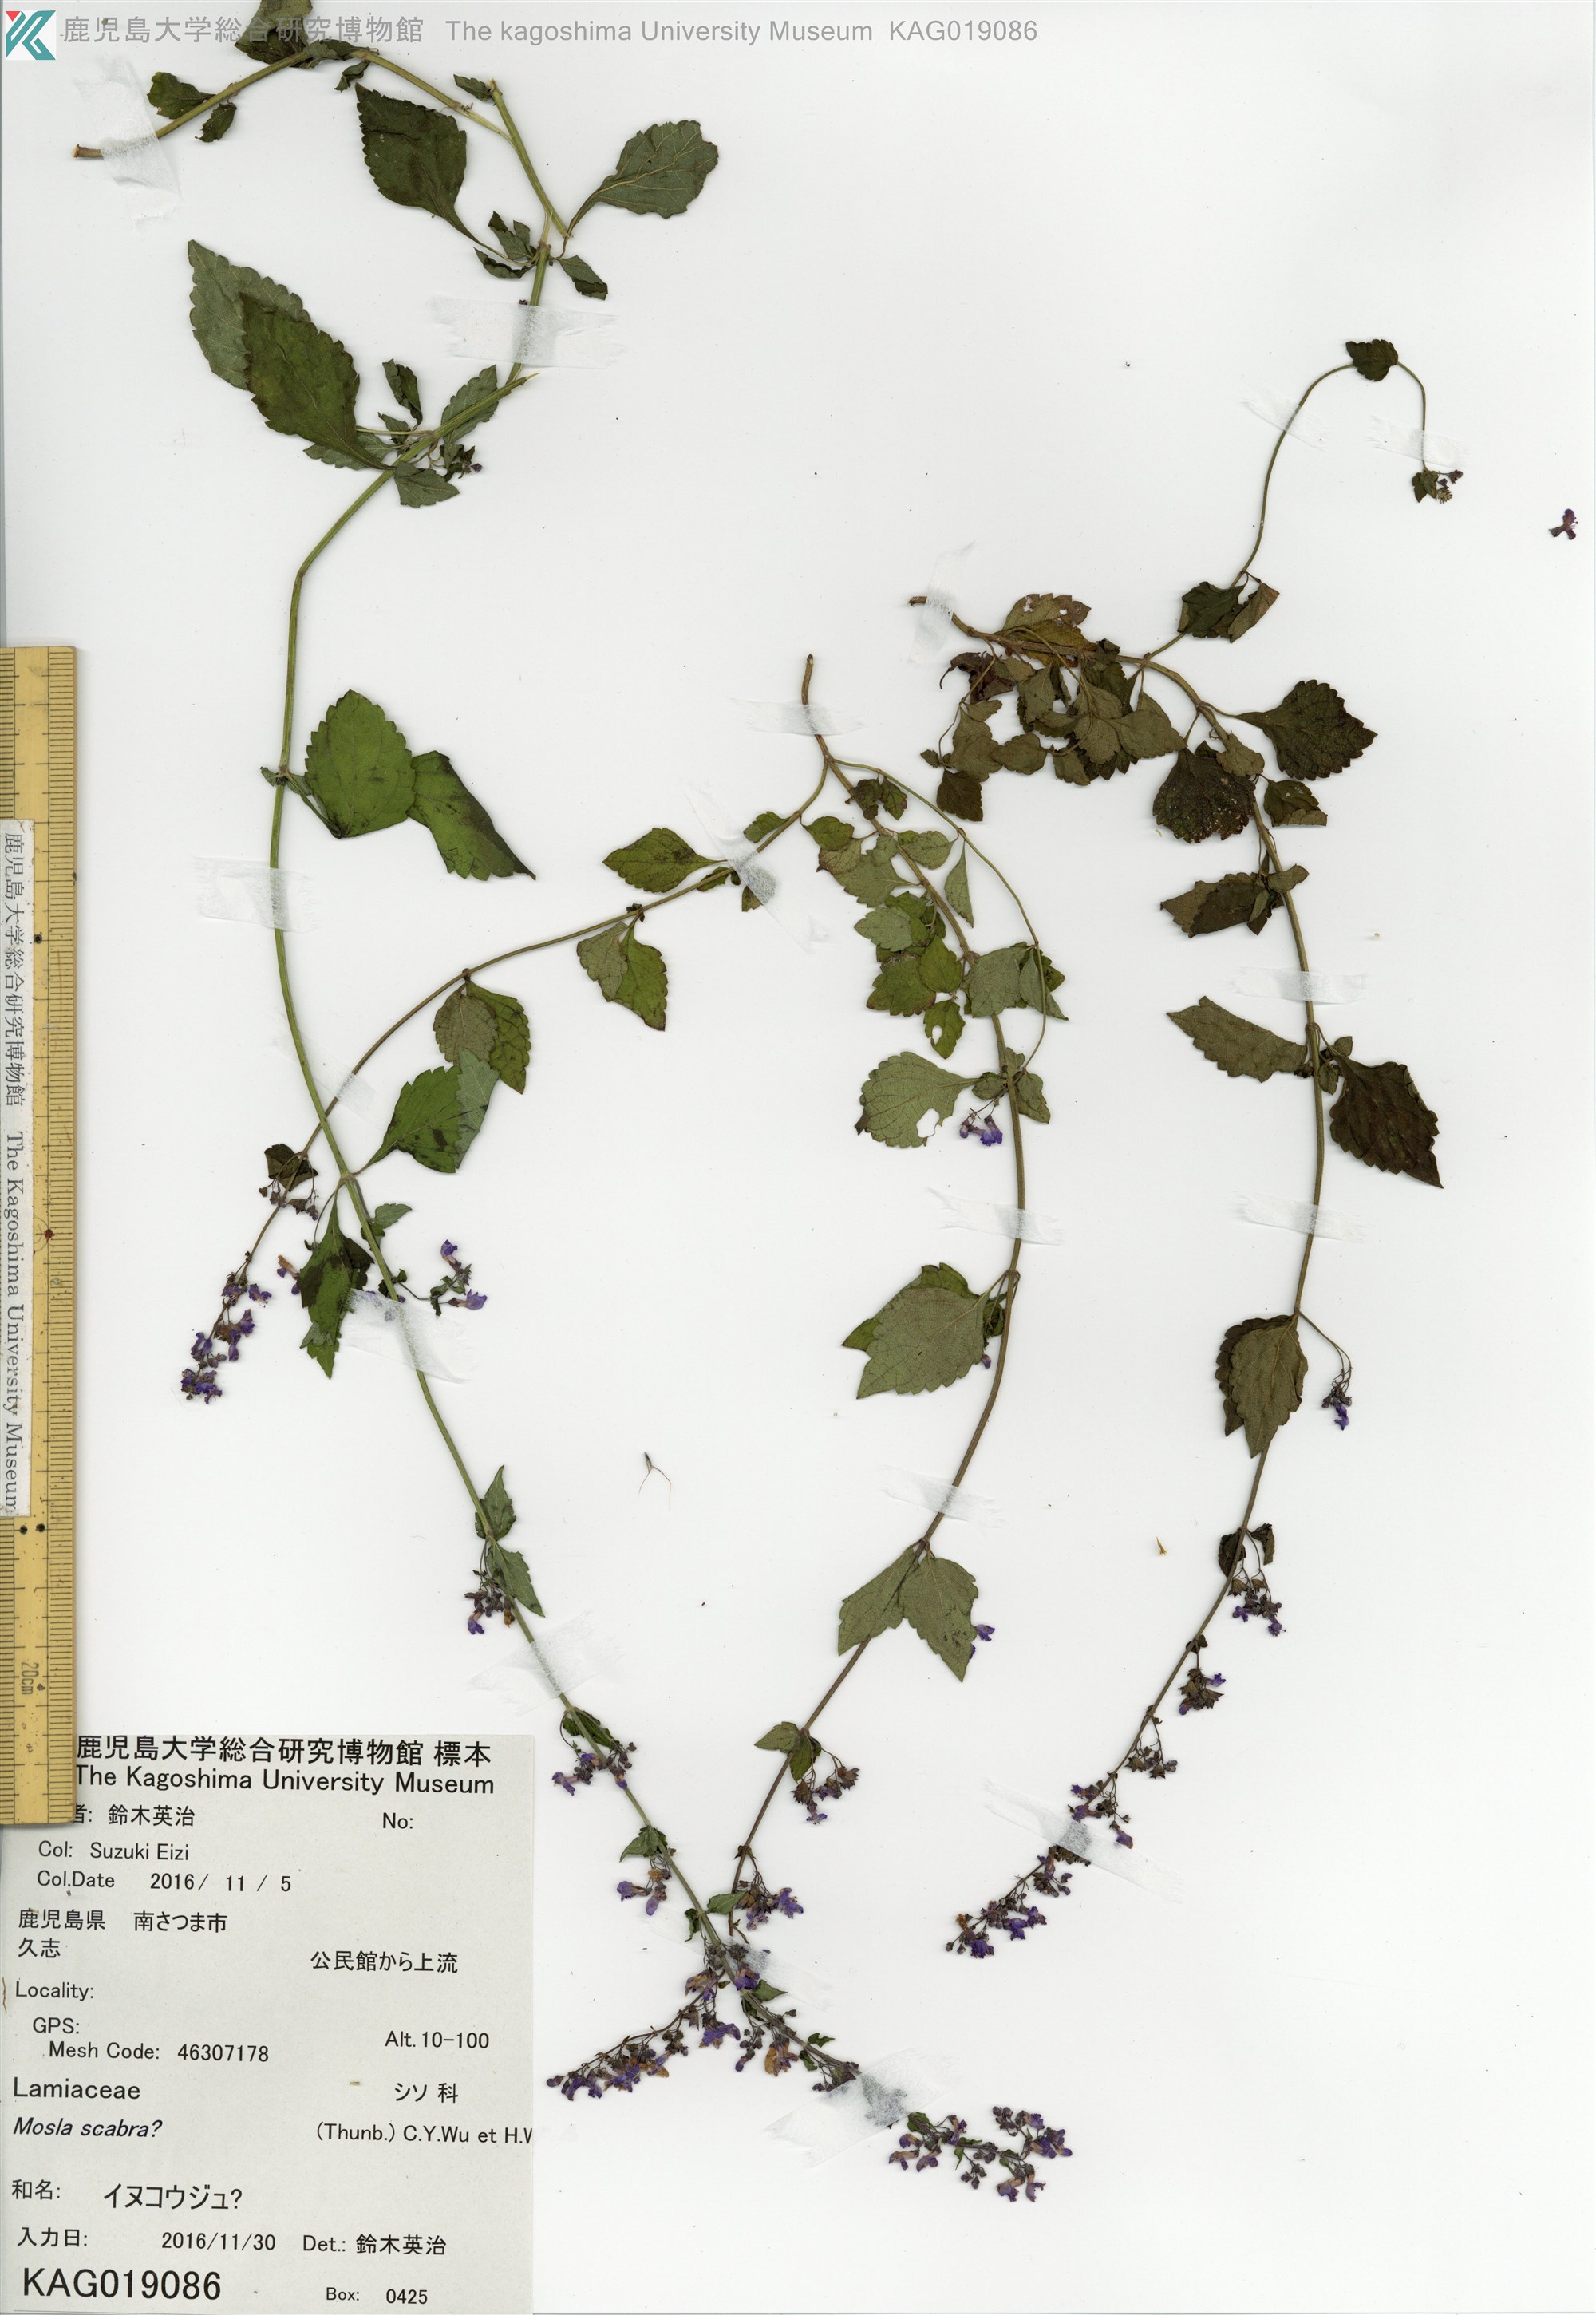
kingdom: Plantae
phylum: Tracheophyta
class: Magnoliopsida
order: Lamiales
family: Lamiaceae
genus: Mosla
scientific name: Mosla
